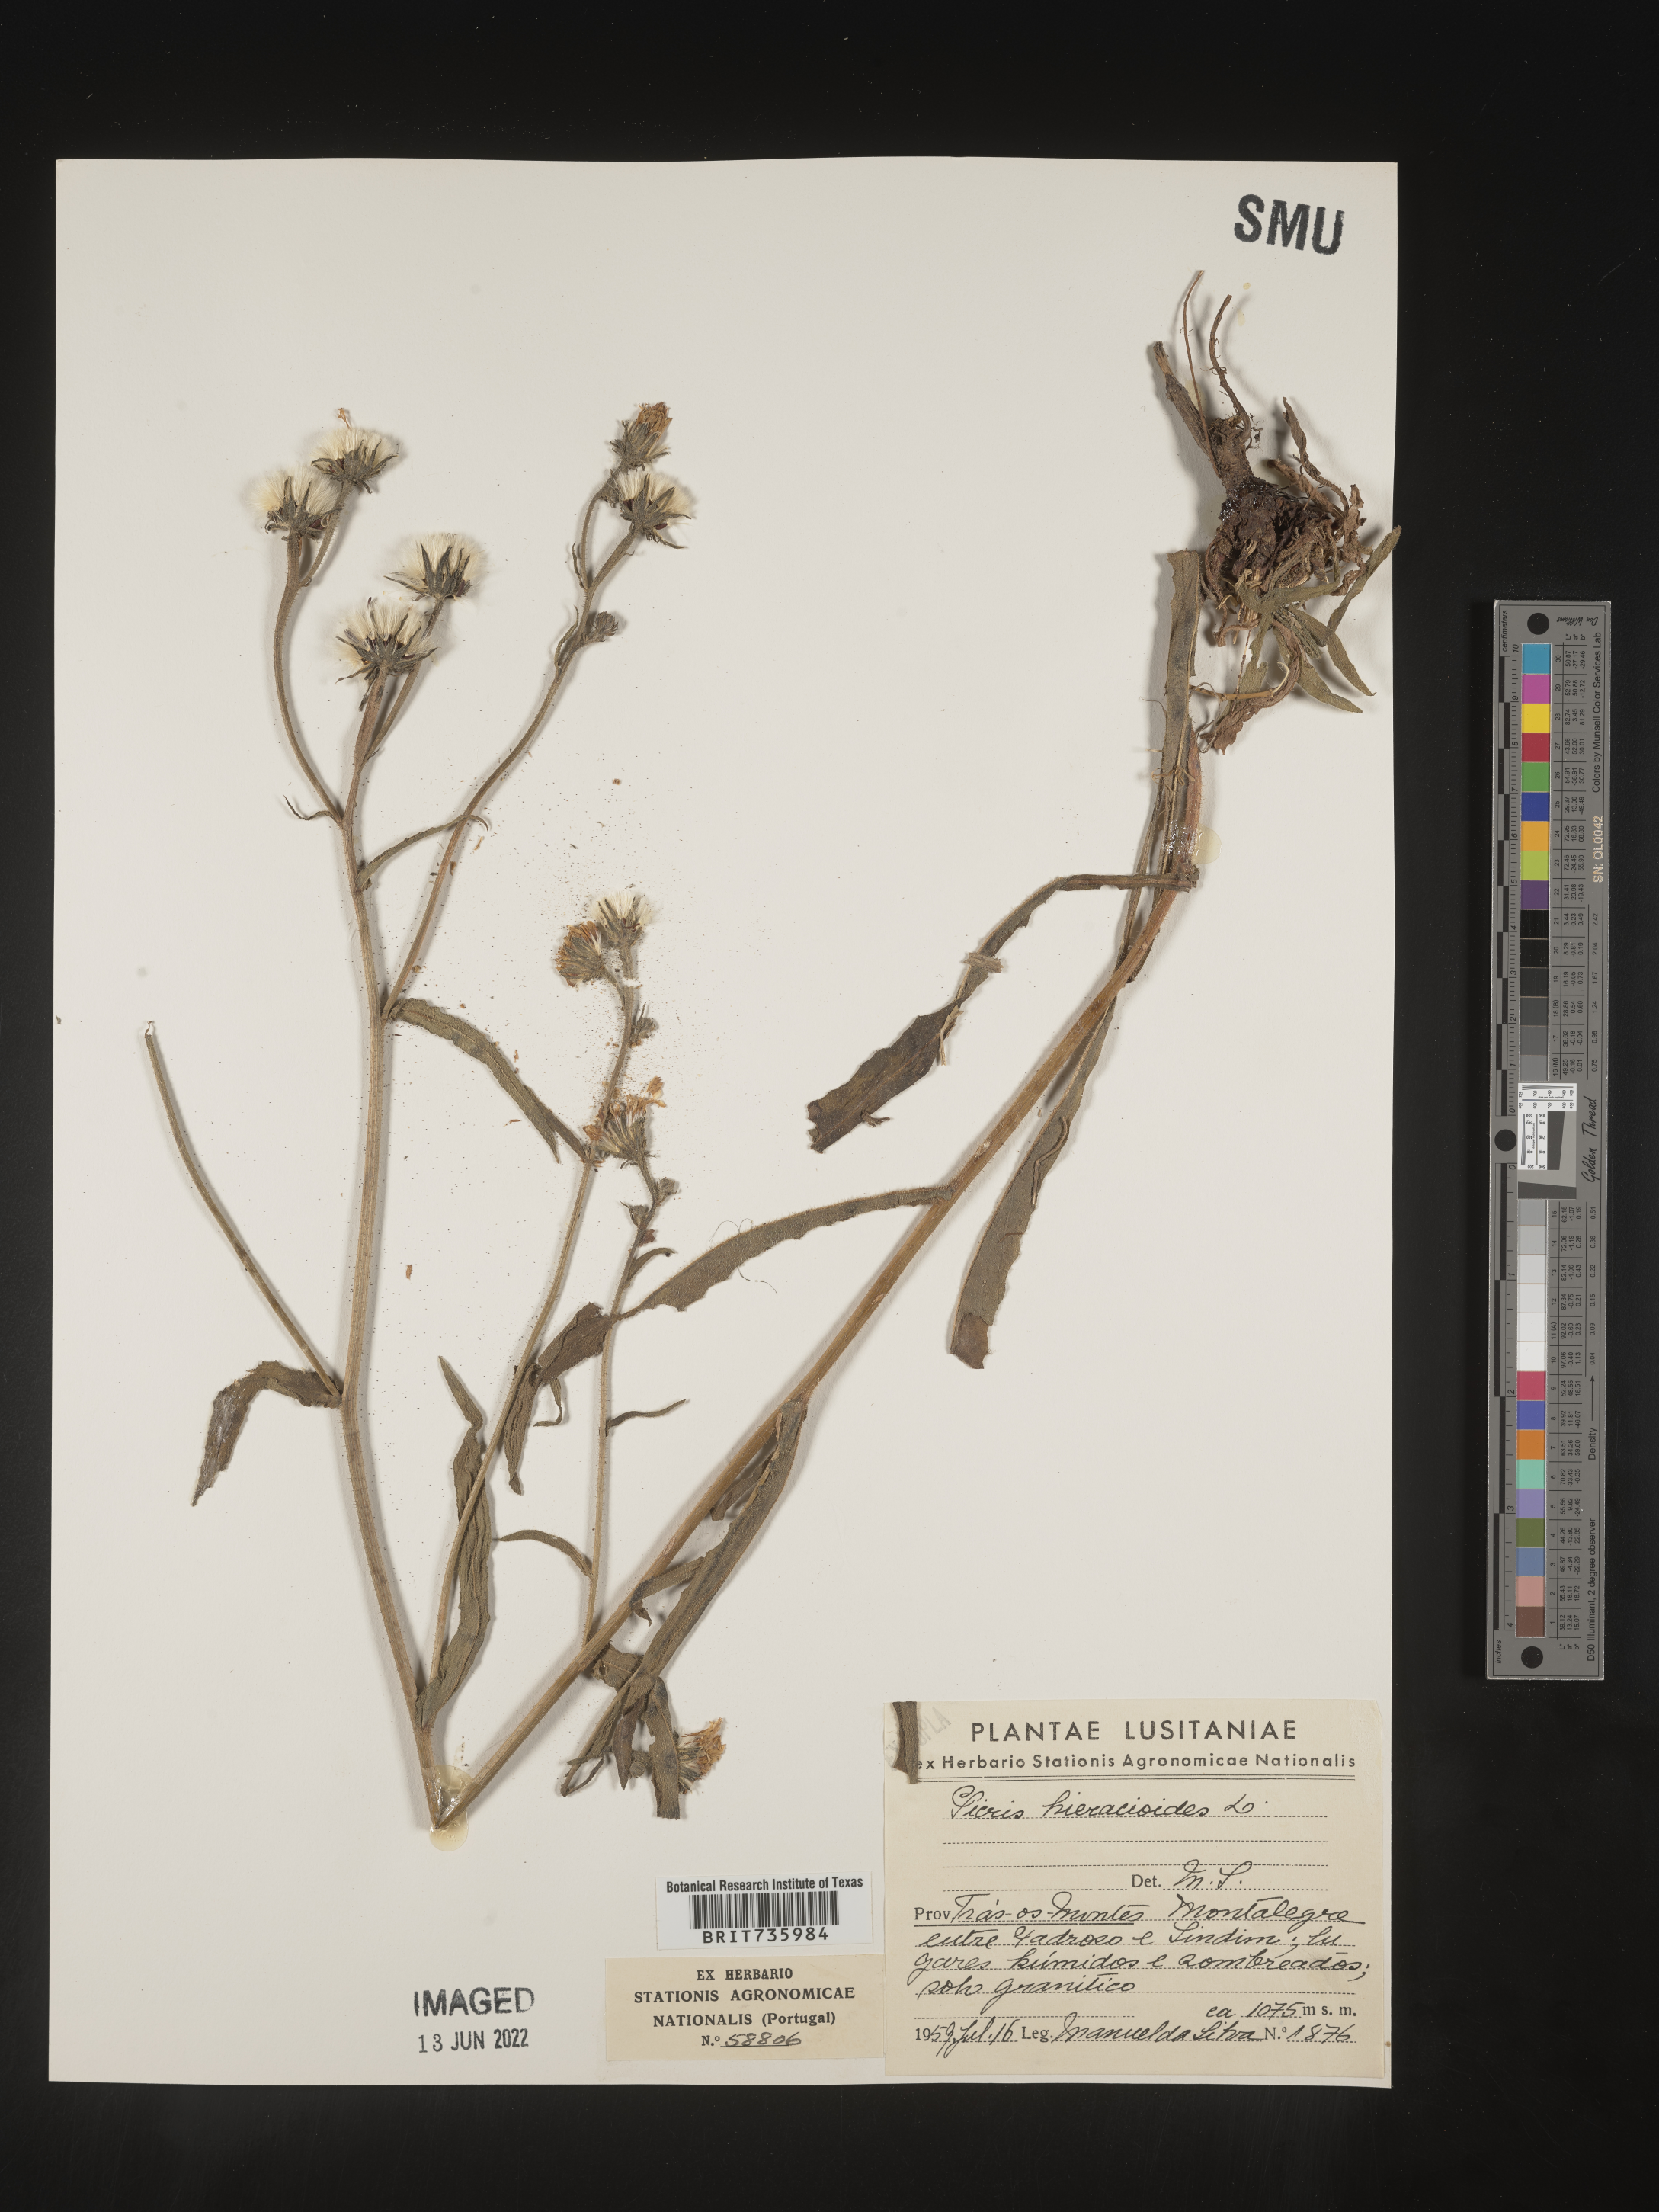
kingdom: Plantae
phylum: Tracheophyta
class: Magnoliopsida
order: Asterales
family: Asteraceae
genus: Picris
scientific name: Picris
